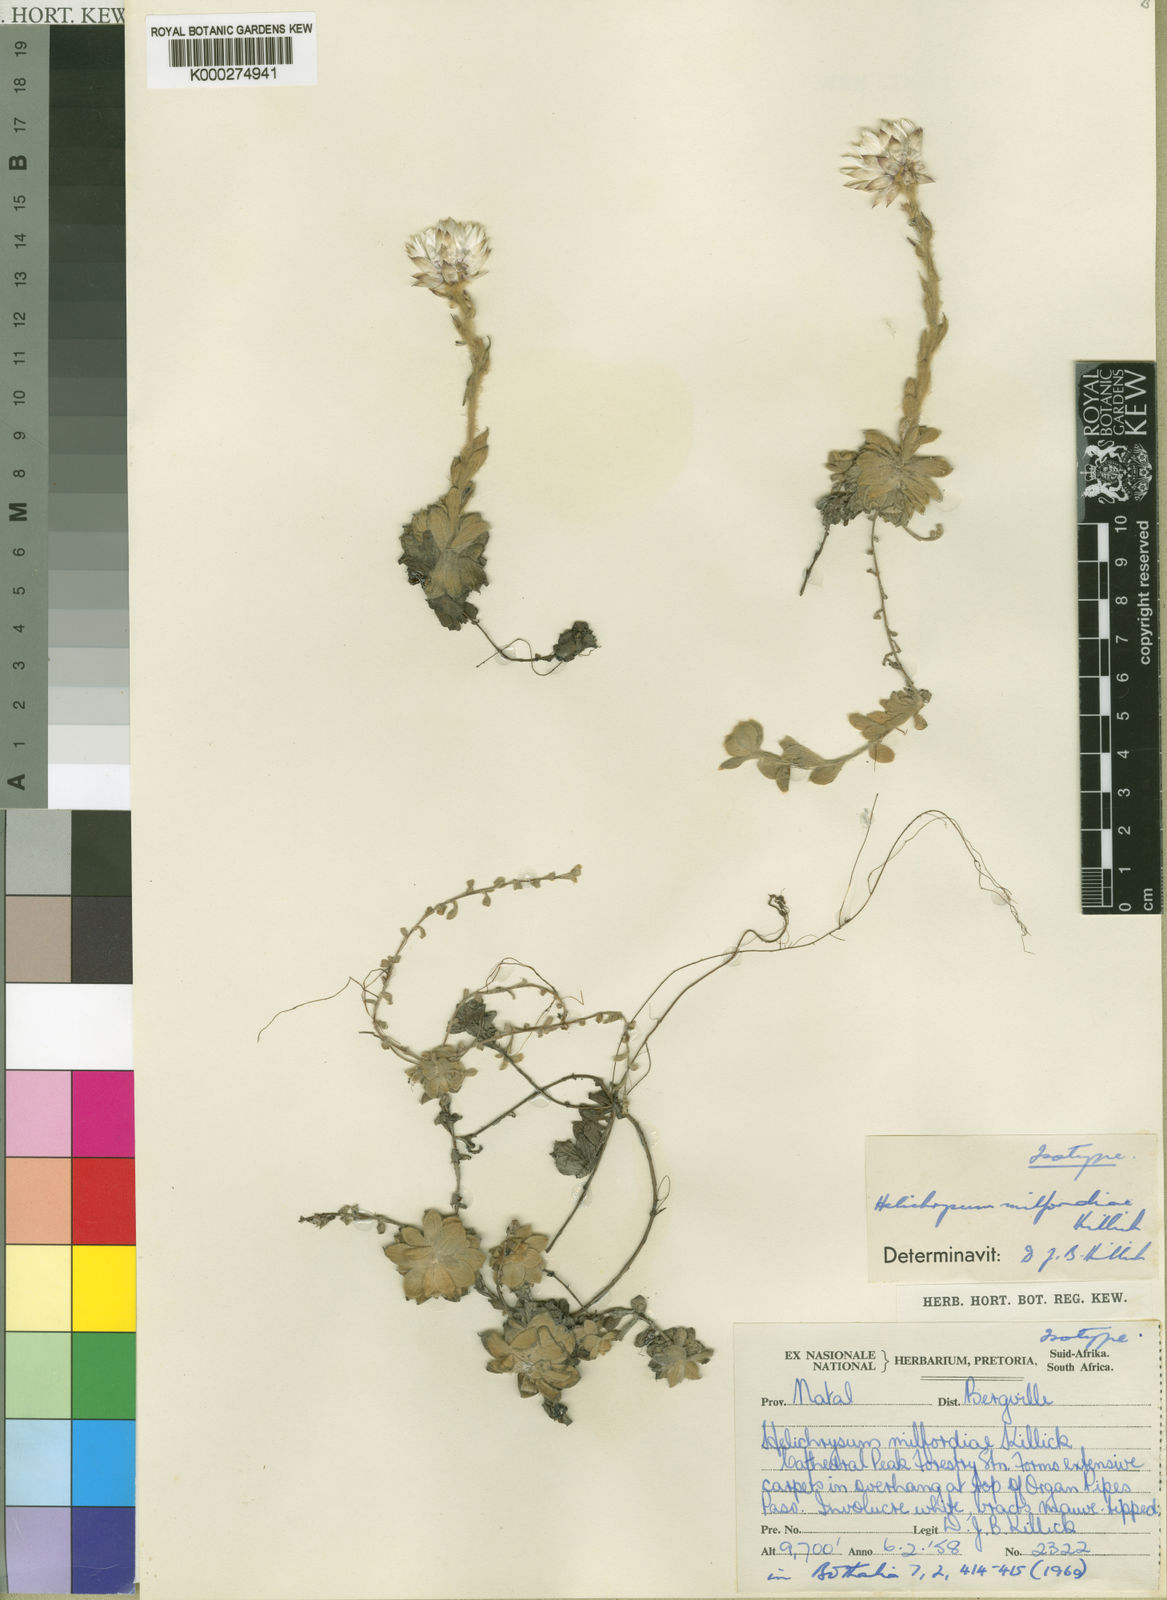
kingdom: Plantae
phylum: Tracheophyta
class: Magnoliopsida
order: Asterales
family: Asteraceae
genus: Helichrysum
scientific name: Helichrysum milfordiae
